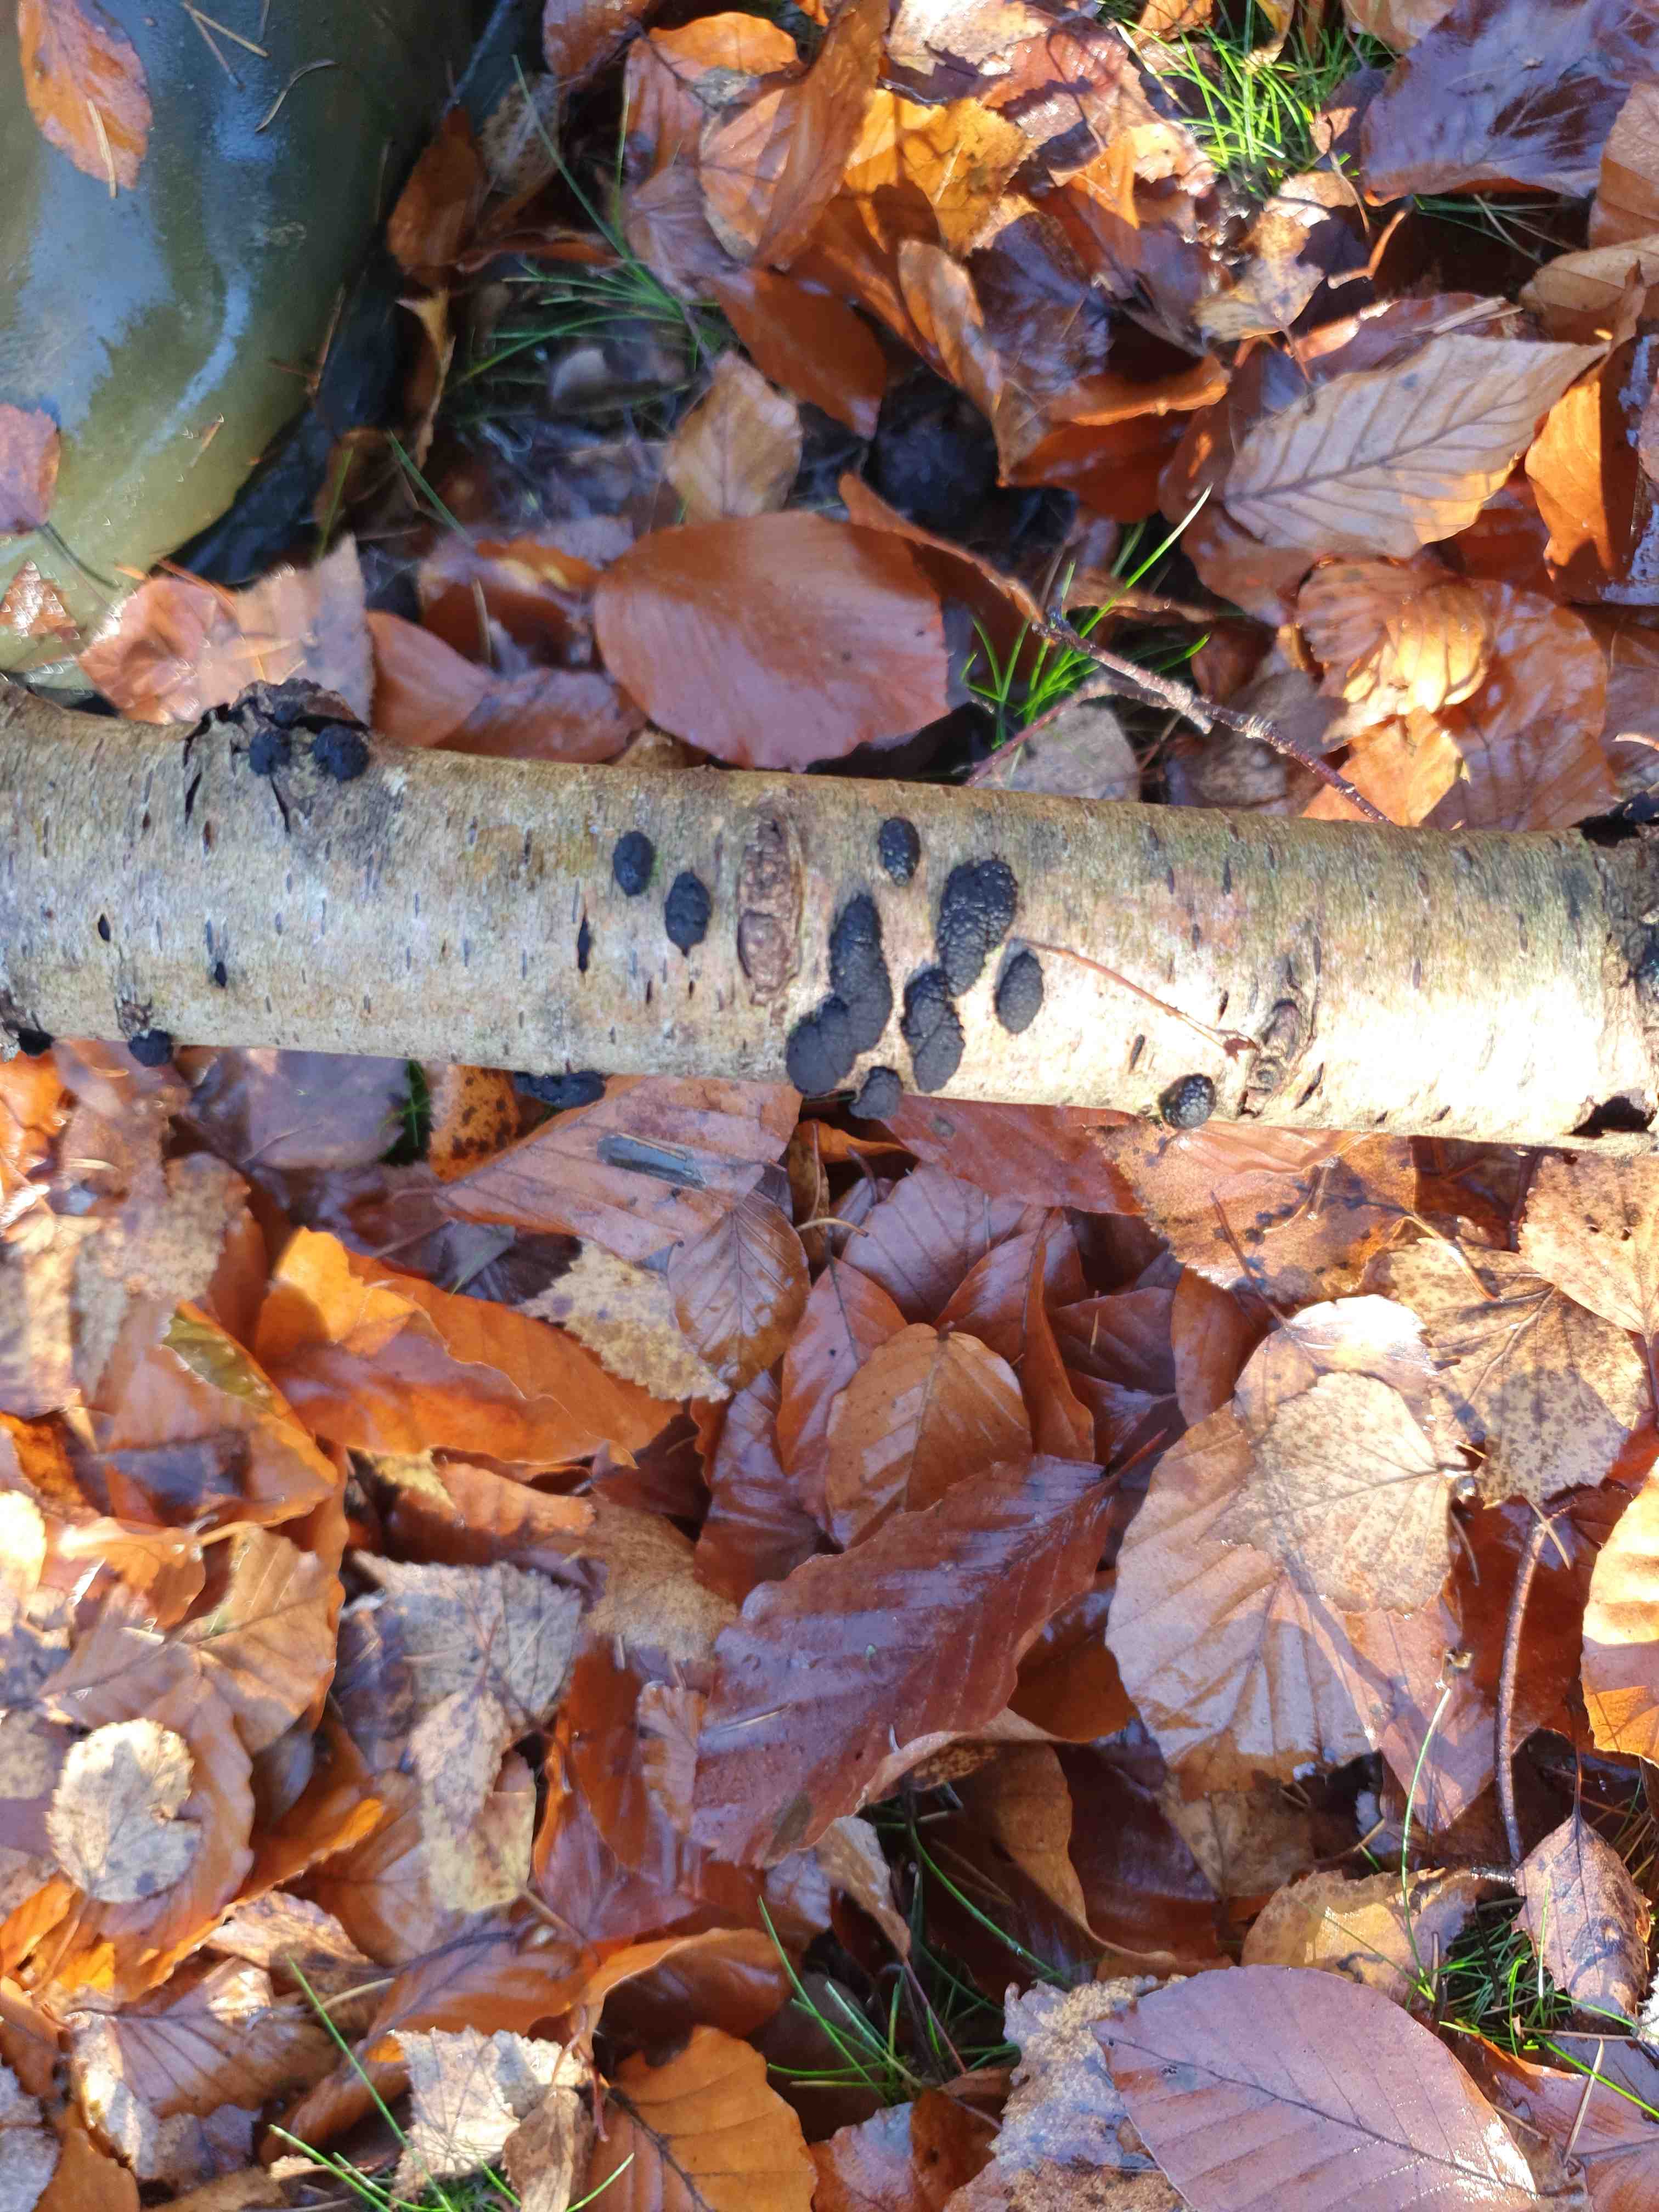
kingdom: Fungi
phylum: Ascomycota
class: Sordariomycetes
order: Xylariales
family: Hypoxylaceae
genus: Jackrogersella
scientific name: Jackrogersella multiformis
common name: foranderlig kulbær
